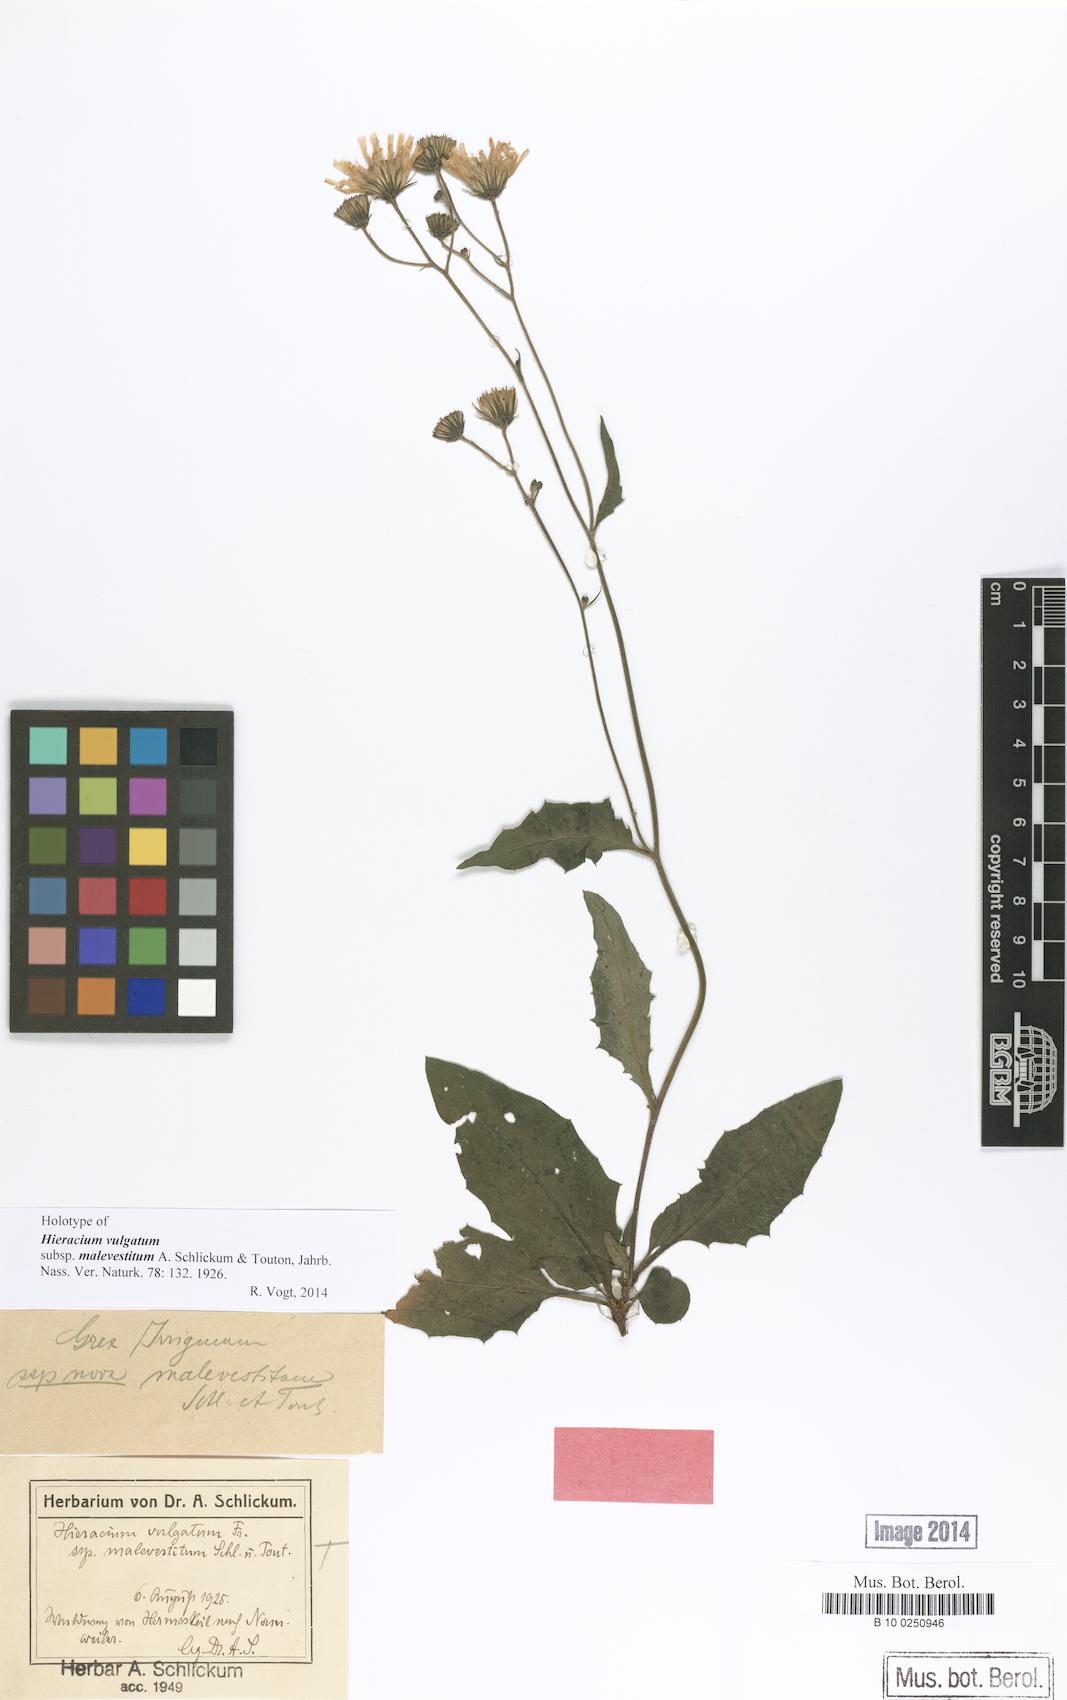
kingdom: Plantae
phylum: Tracheophyta
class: Magnoliopsida
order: Asterales
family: Asteraceae
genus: Hieracium
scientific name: Hieracium lachenalii
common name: Common hawkweed
